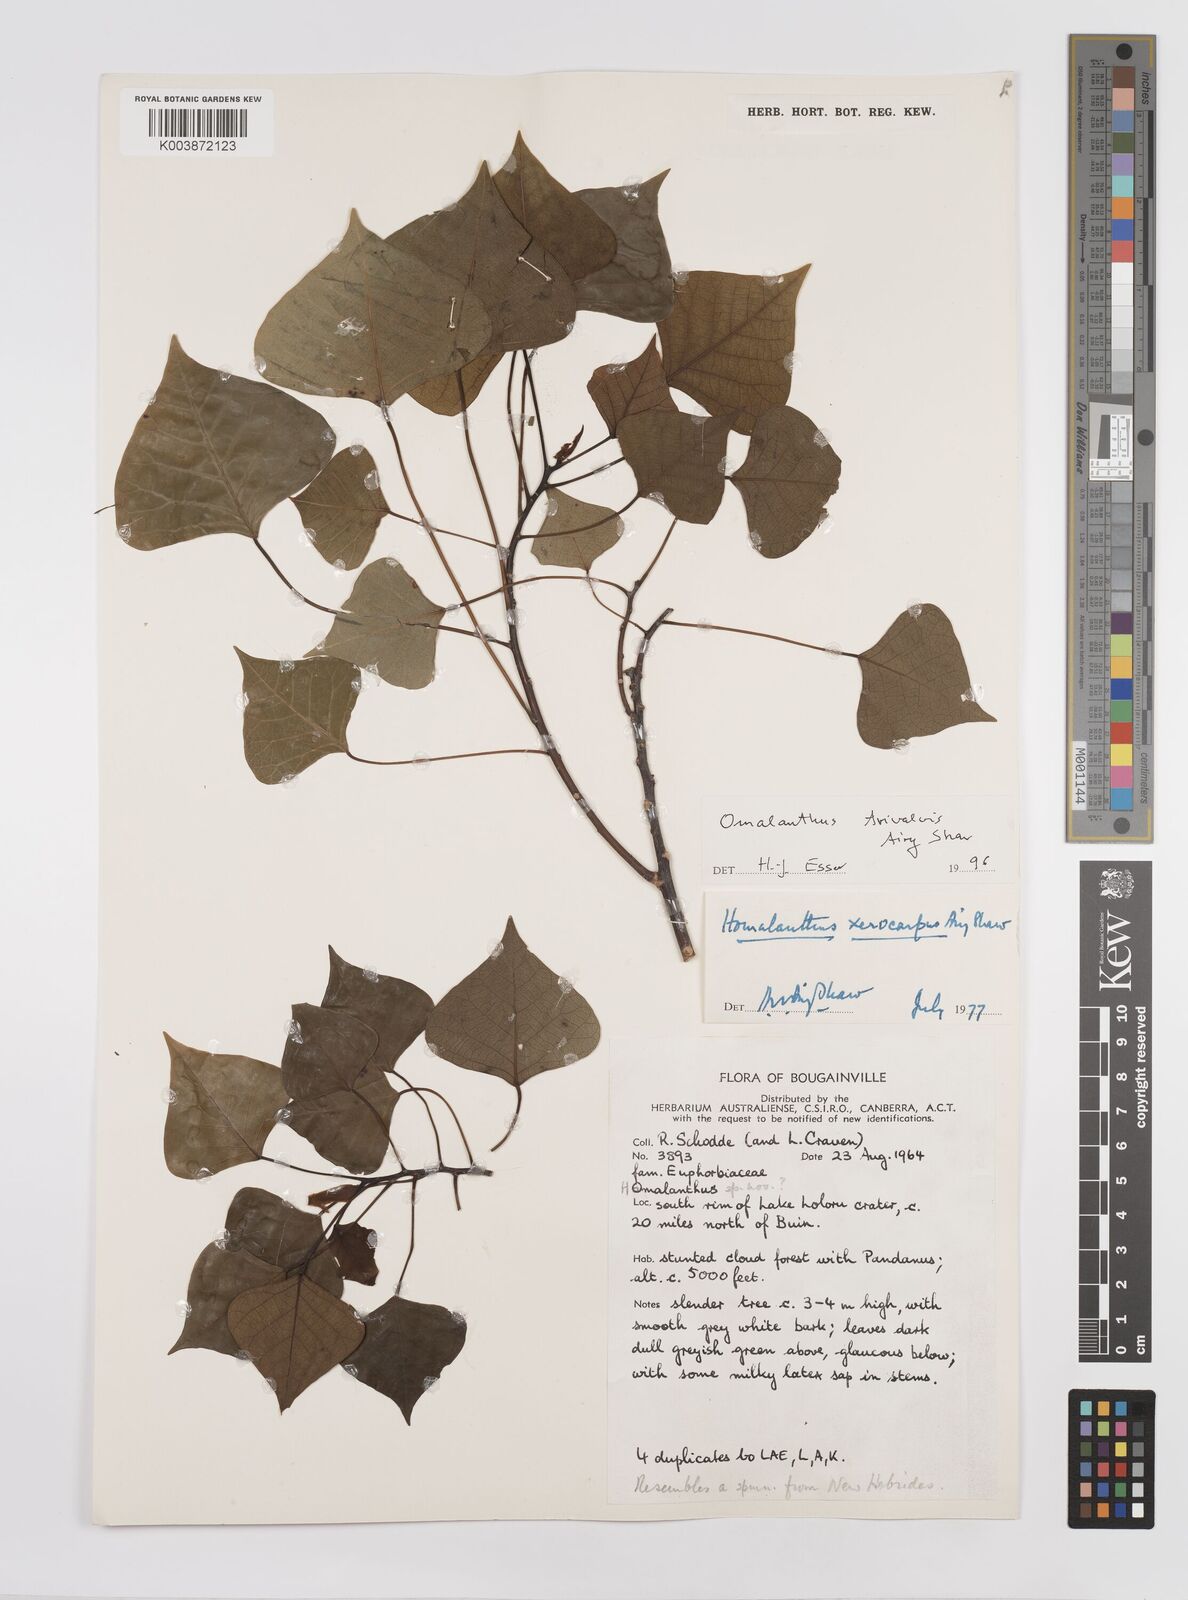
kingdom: Plantae
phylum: Tracheophyta
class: Magnoliopsida
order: Malpighiales
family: Euphorbiaceae
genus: Homalanthus
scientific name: Homalanthus trivalvis
